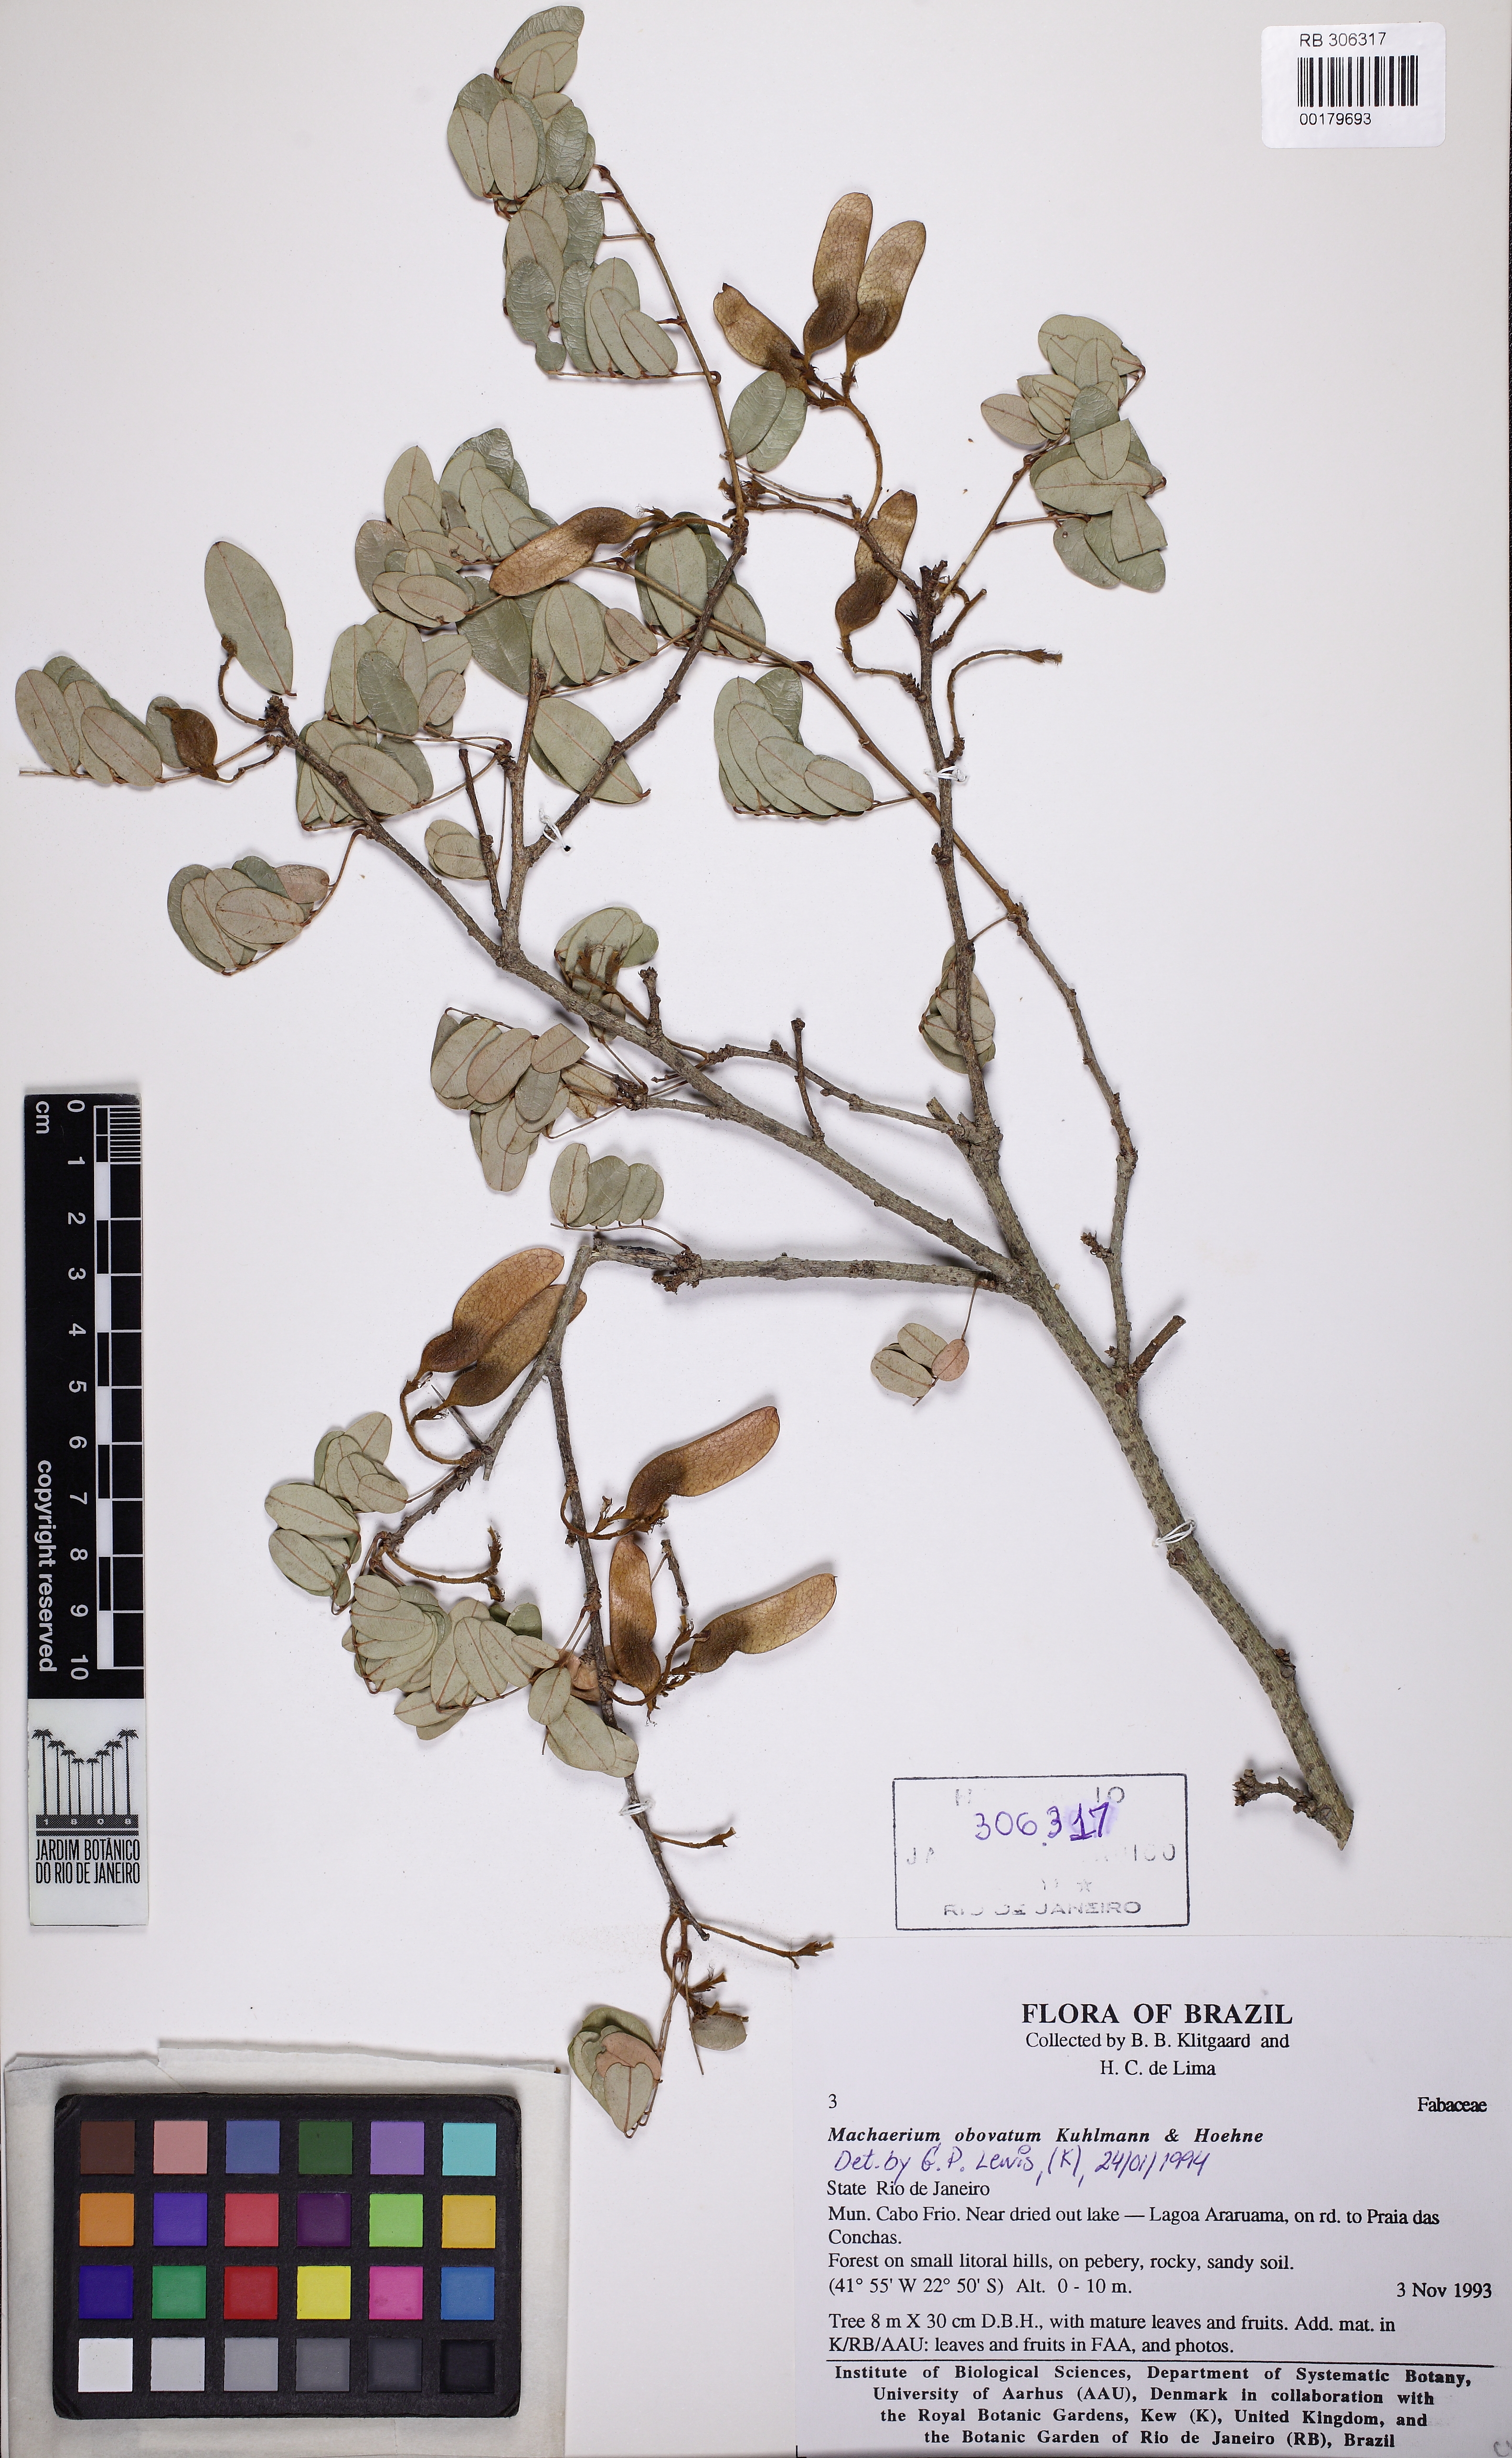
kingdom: Plantae
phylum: Tracheophyta
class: Magnoliopsida
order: Fabales
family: Fabaceae
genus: Machaerium
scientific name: Machaerium obovatum
